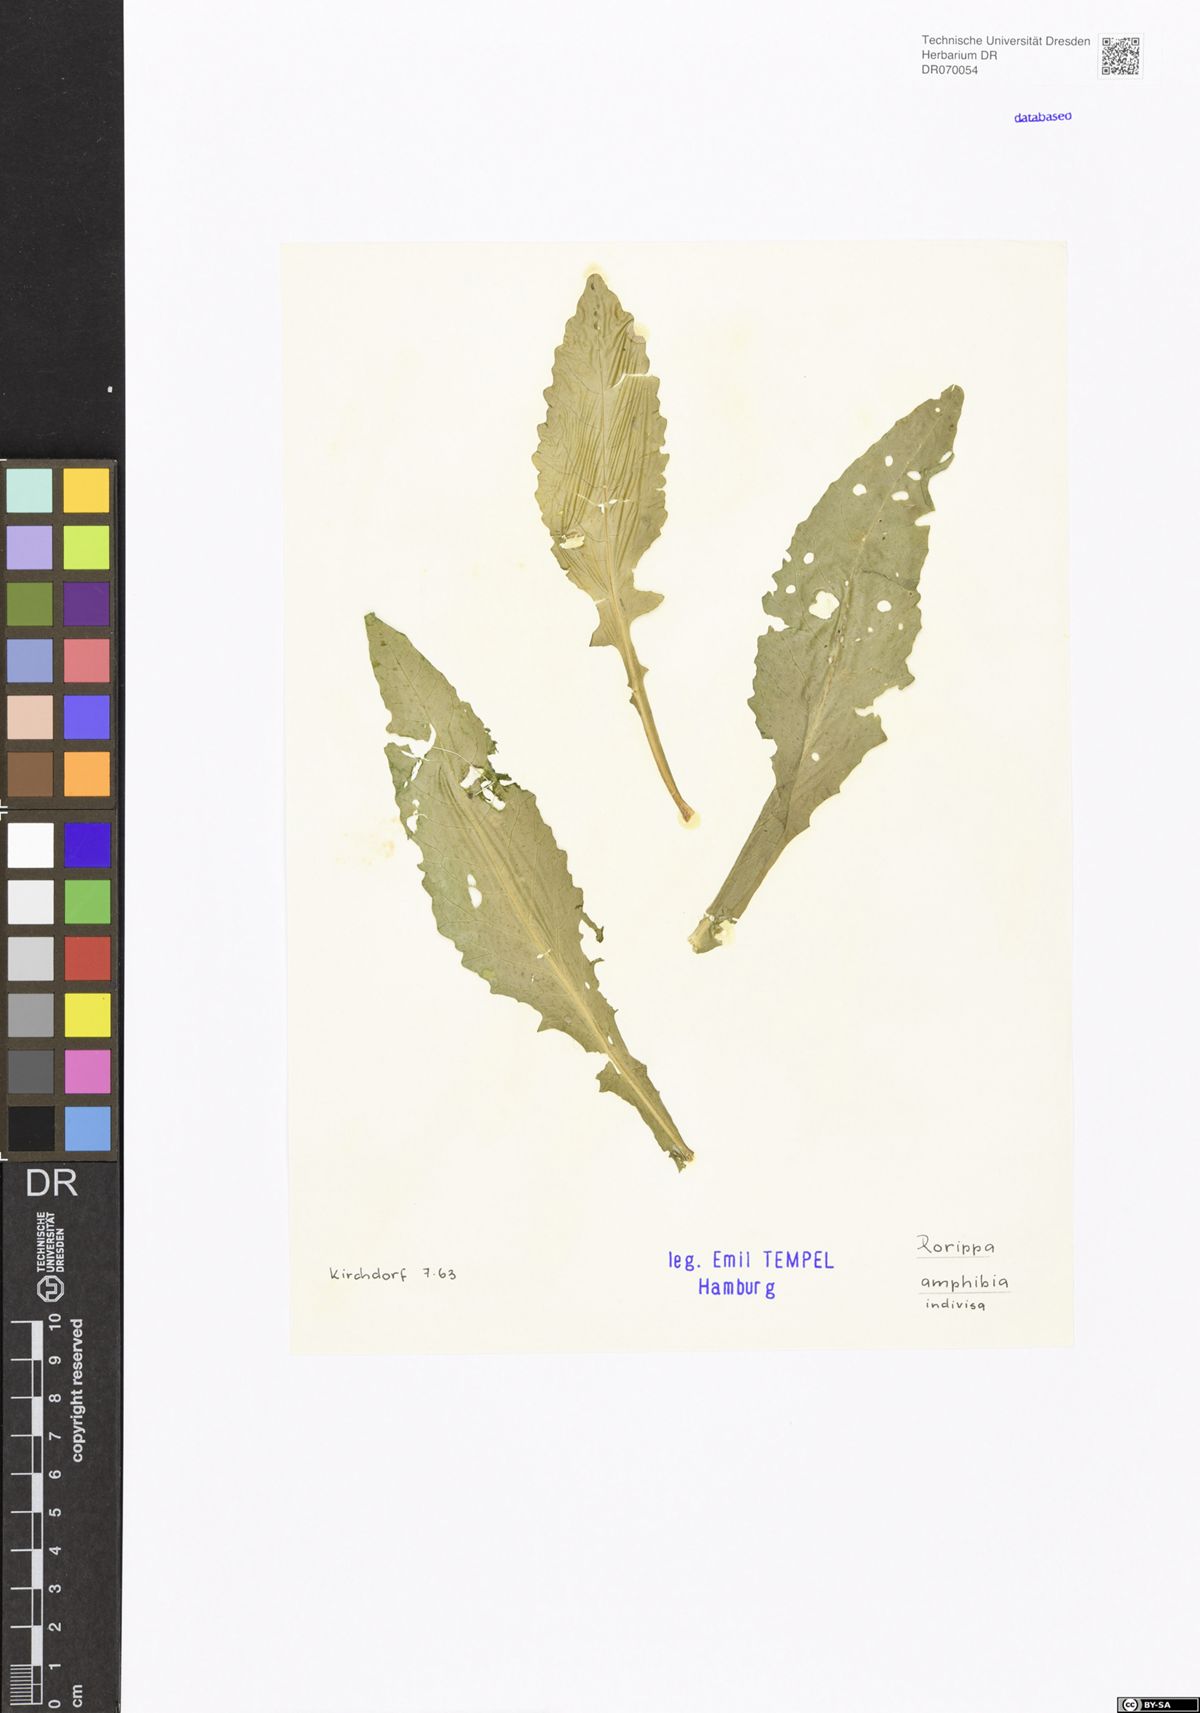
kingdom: Plantae
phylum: Tracheophyta
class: Magnoliopsida
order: Brassicales
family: Brassicaceae
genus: Rorippa
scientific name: Rorippa amphibia
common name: Great yellow-cress
